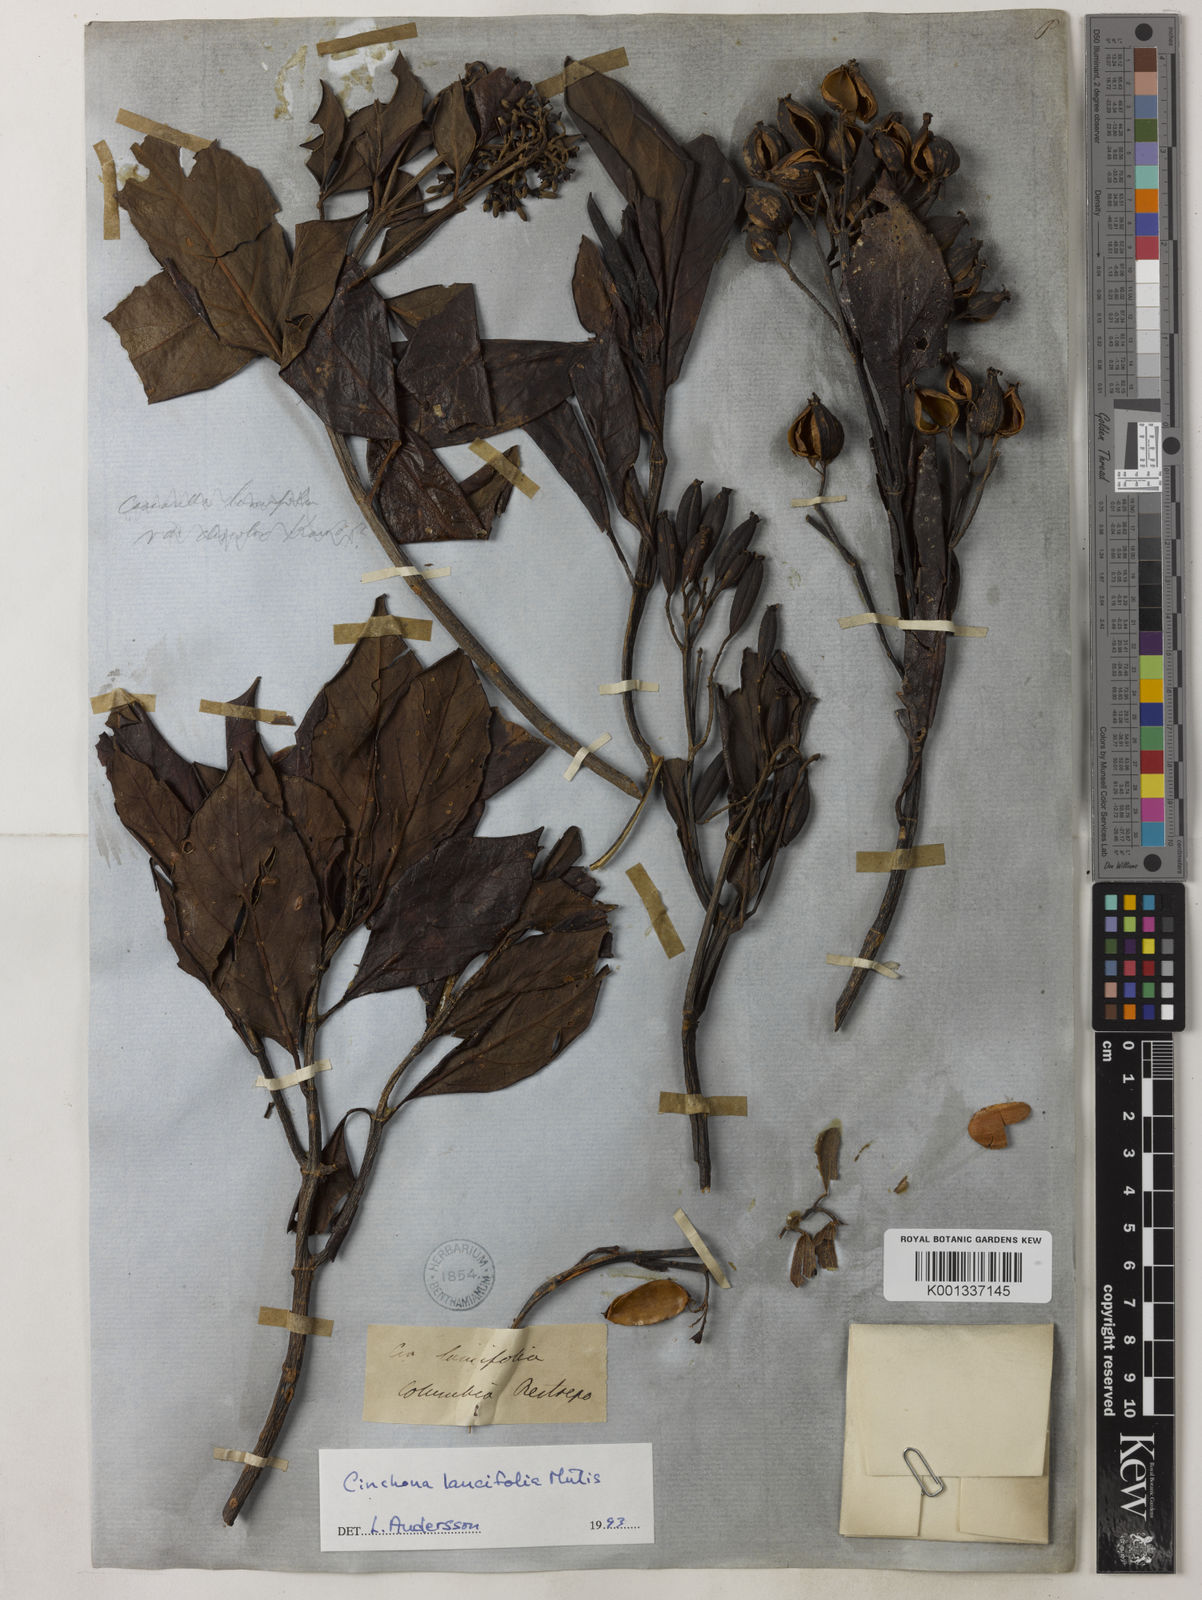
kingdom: Plantae
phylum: Tracheophyta
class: Magnoliopsida
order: Gentianales
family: Rubiaceae
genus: Cinchona
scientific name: Cinchona lancifolia
